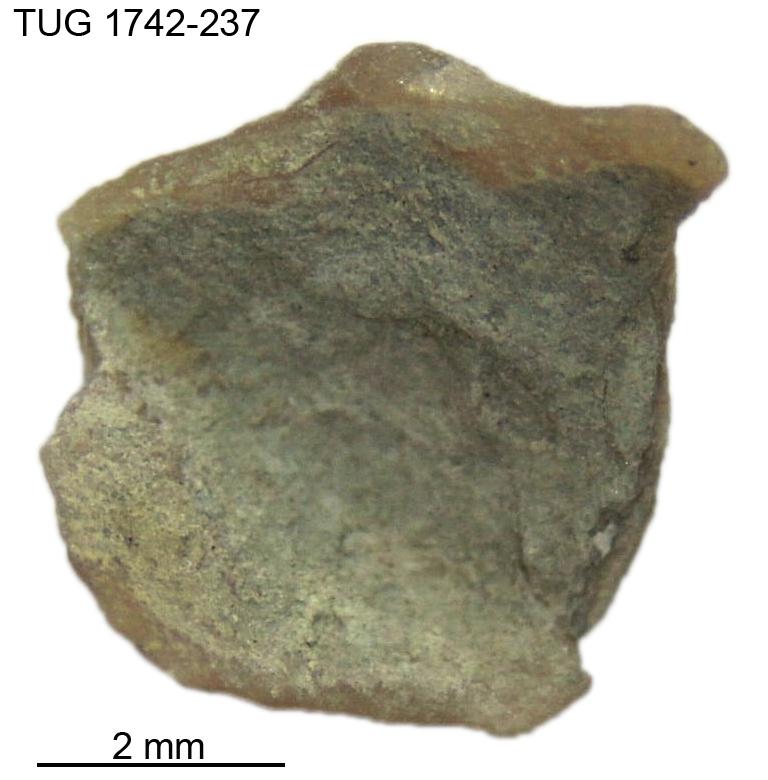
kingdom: Animalia
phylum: Brachiopoda
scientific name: Brachiopoda
